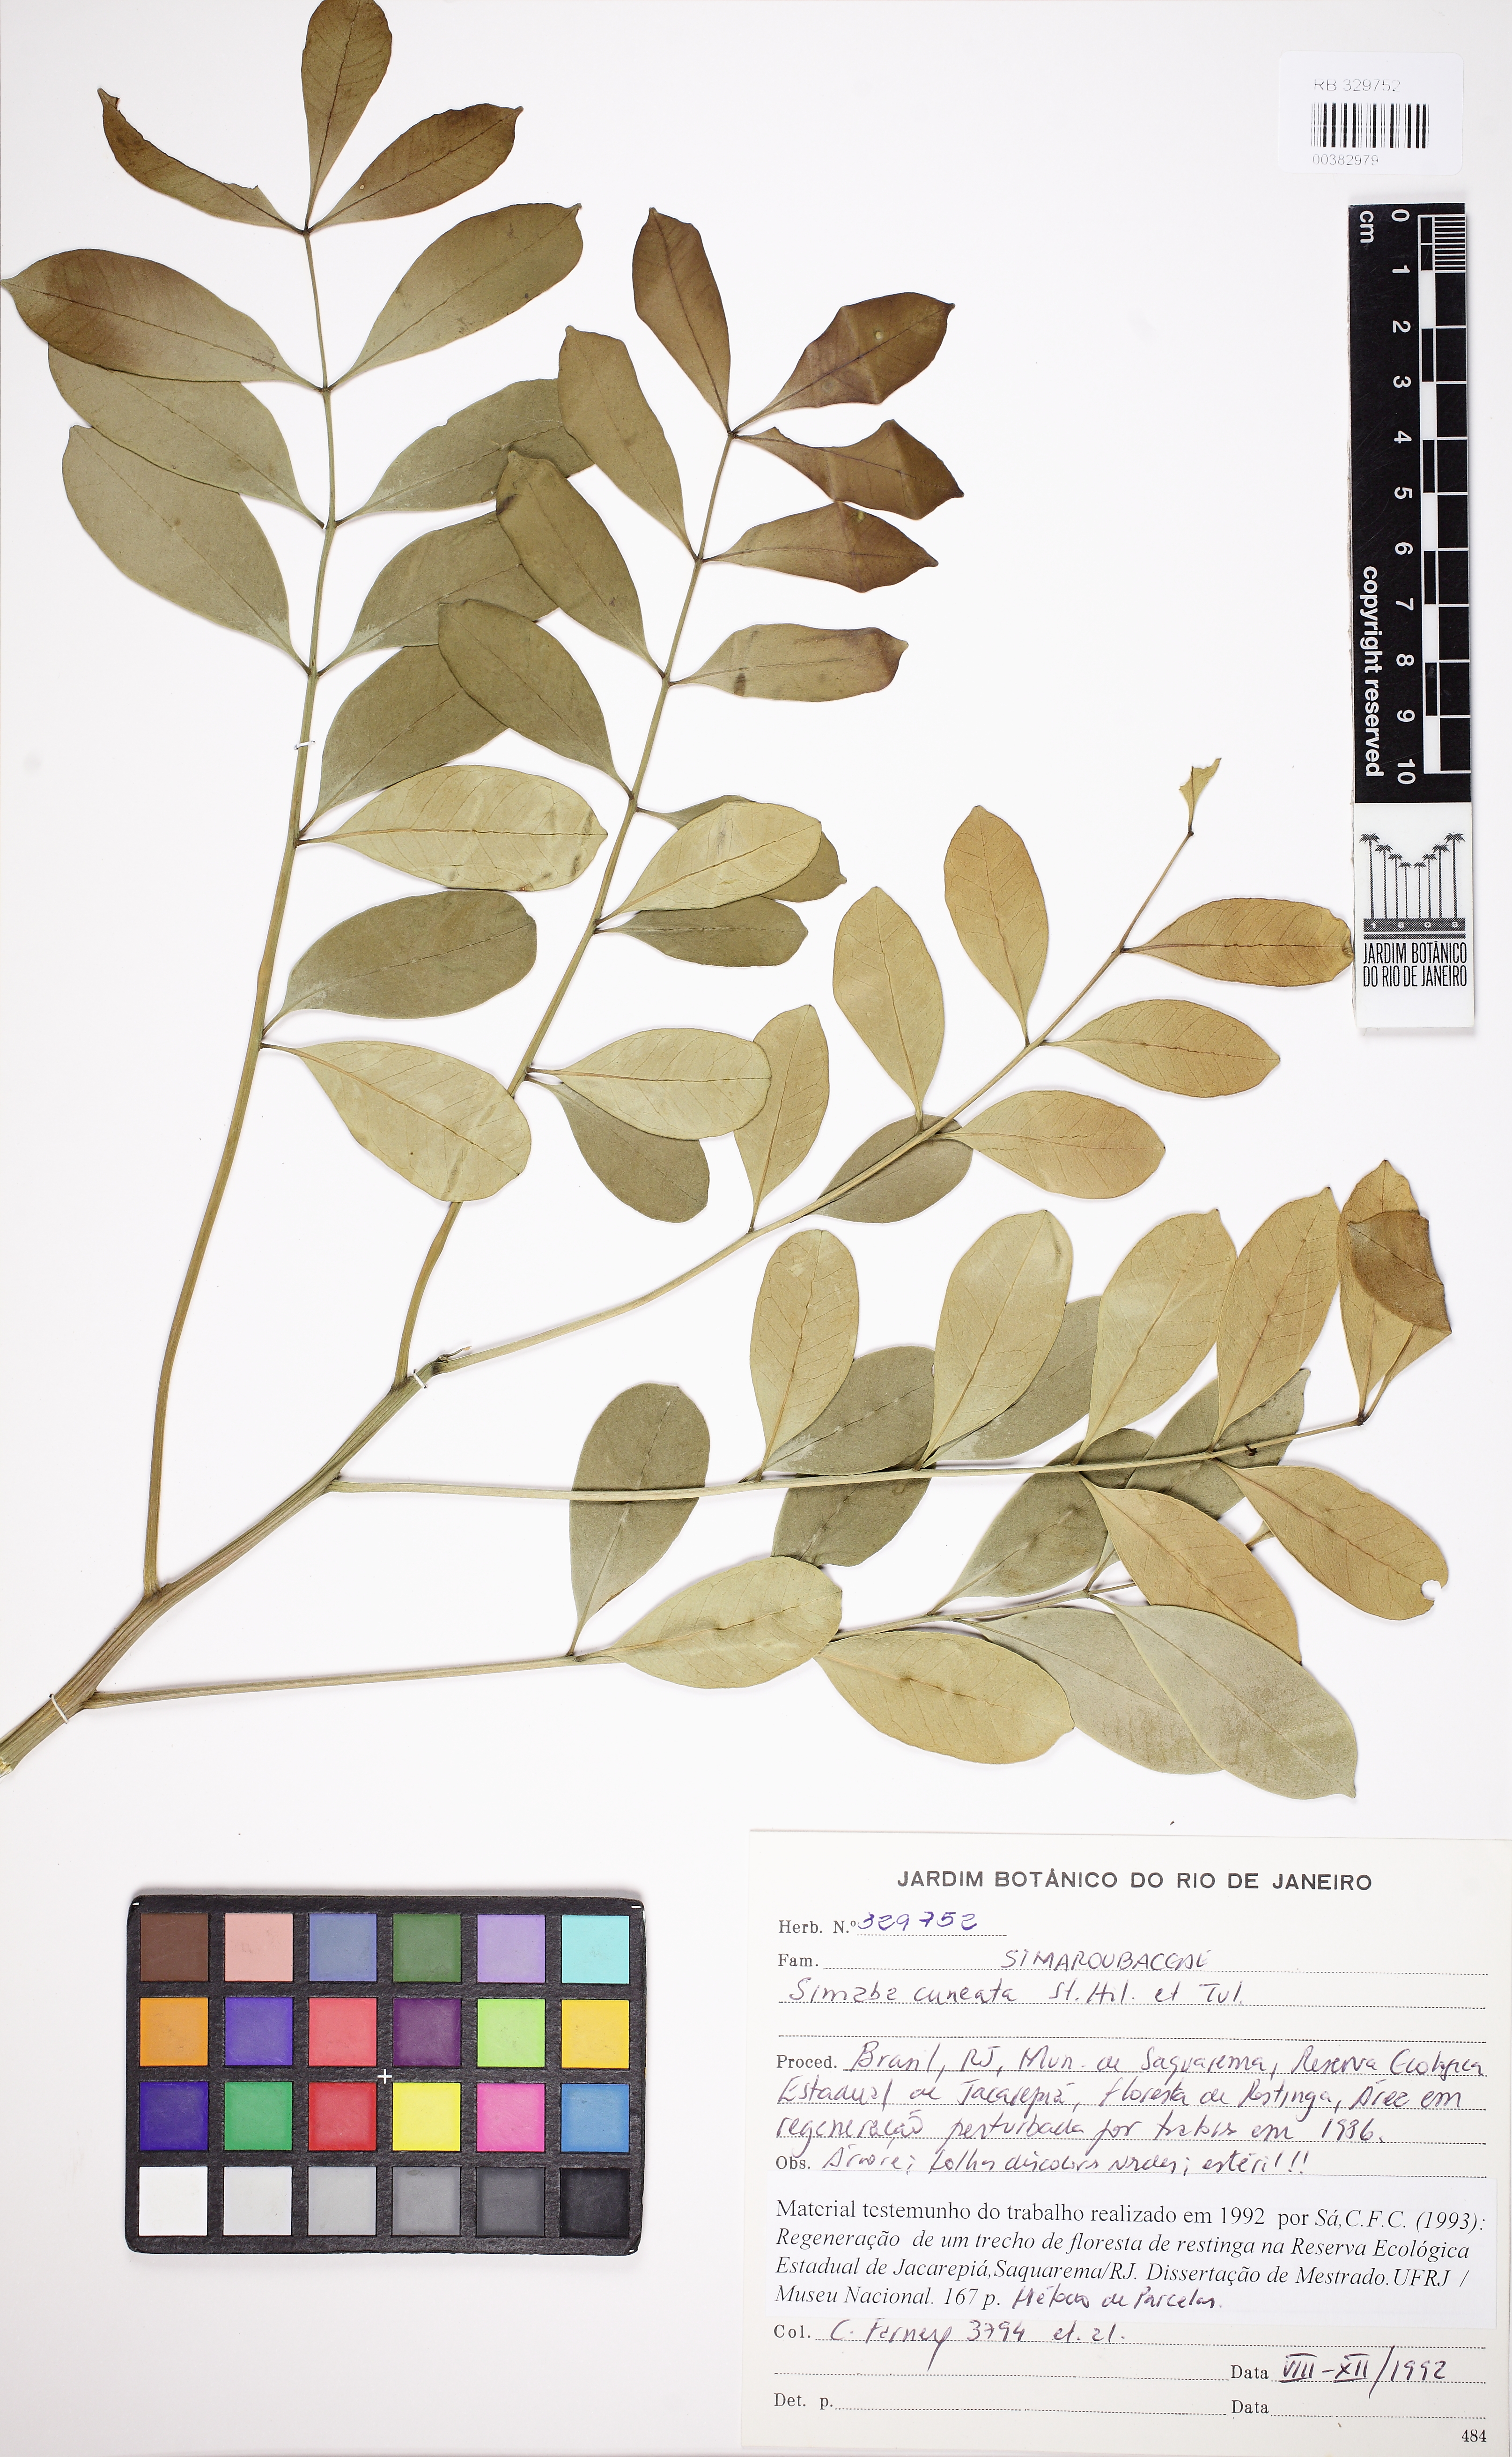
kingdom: Plantae
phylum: Tracheophyta
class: Magnoliopsida
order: Sapindales
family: Simaroubaceae
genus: Homalolepis
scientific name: Homalolepis cuneata
